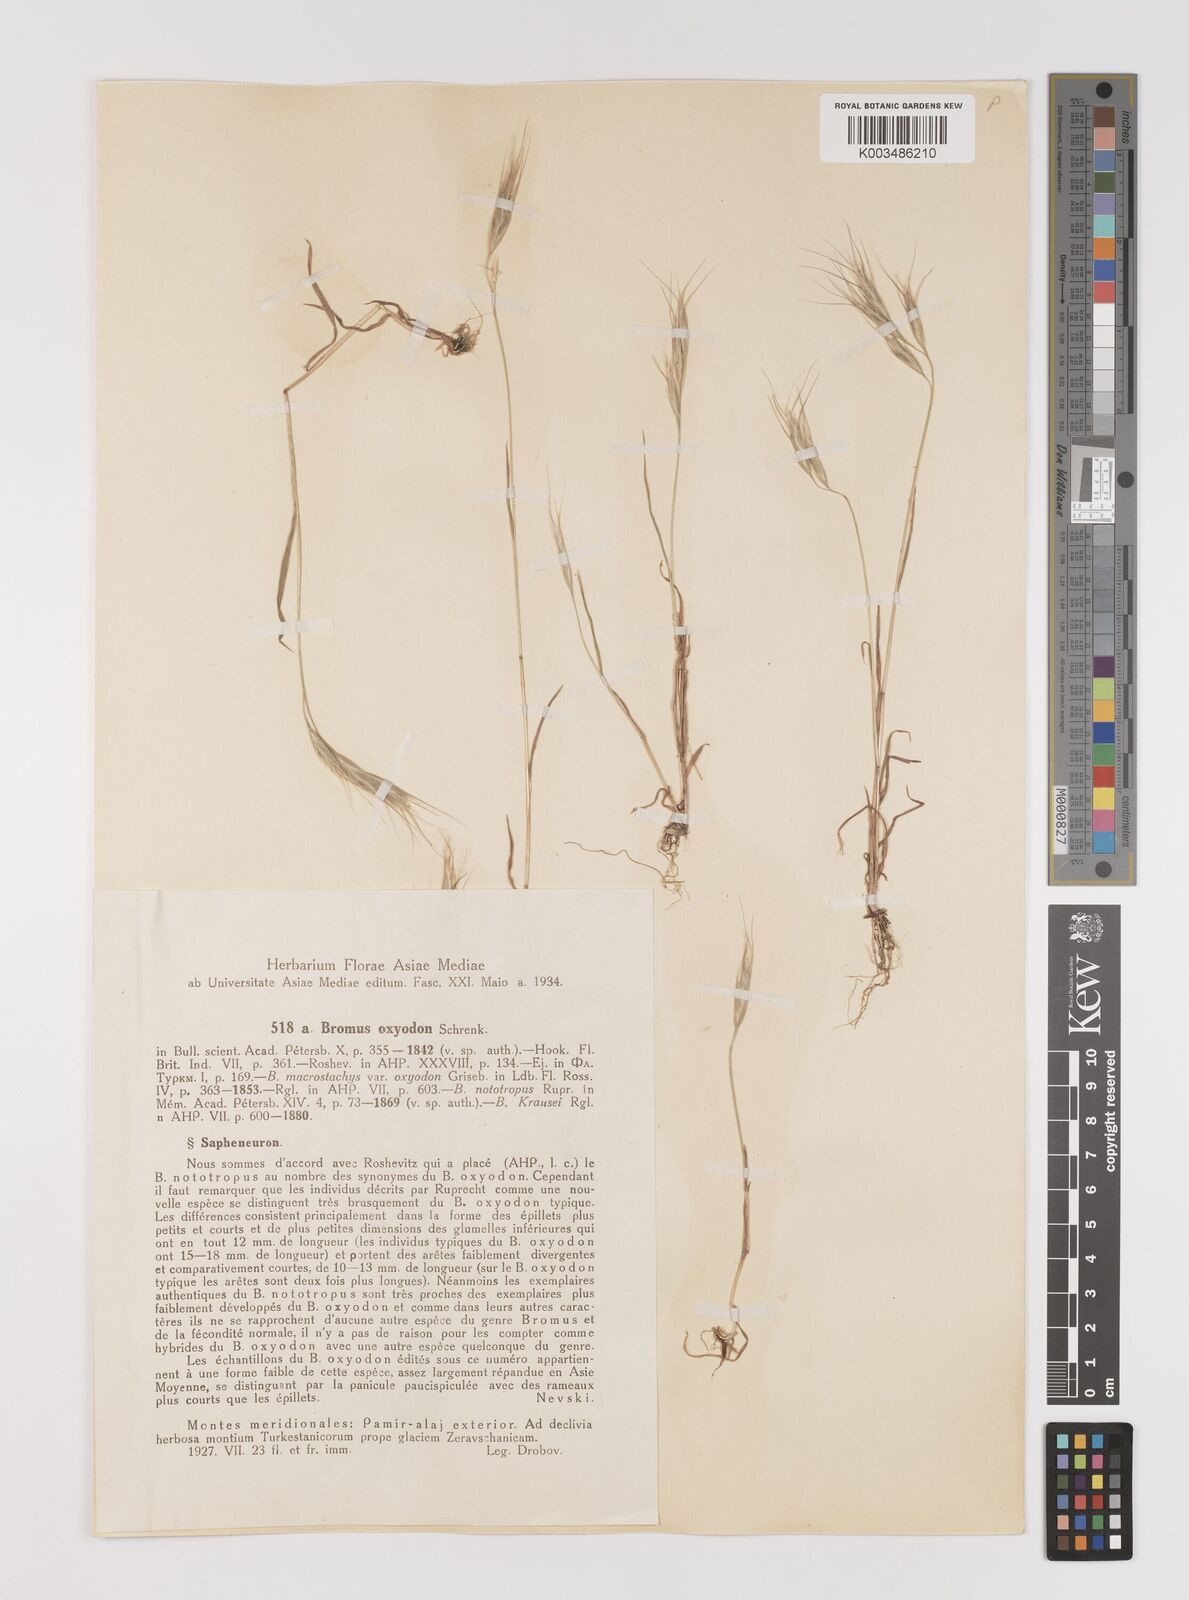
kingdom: Plantae
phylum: Tracheophyta
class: Liliopsida
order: Poales
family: Poaceae
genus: Bromus
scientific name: Bromus oxyodon
